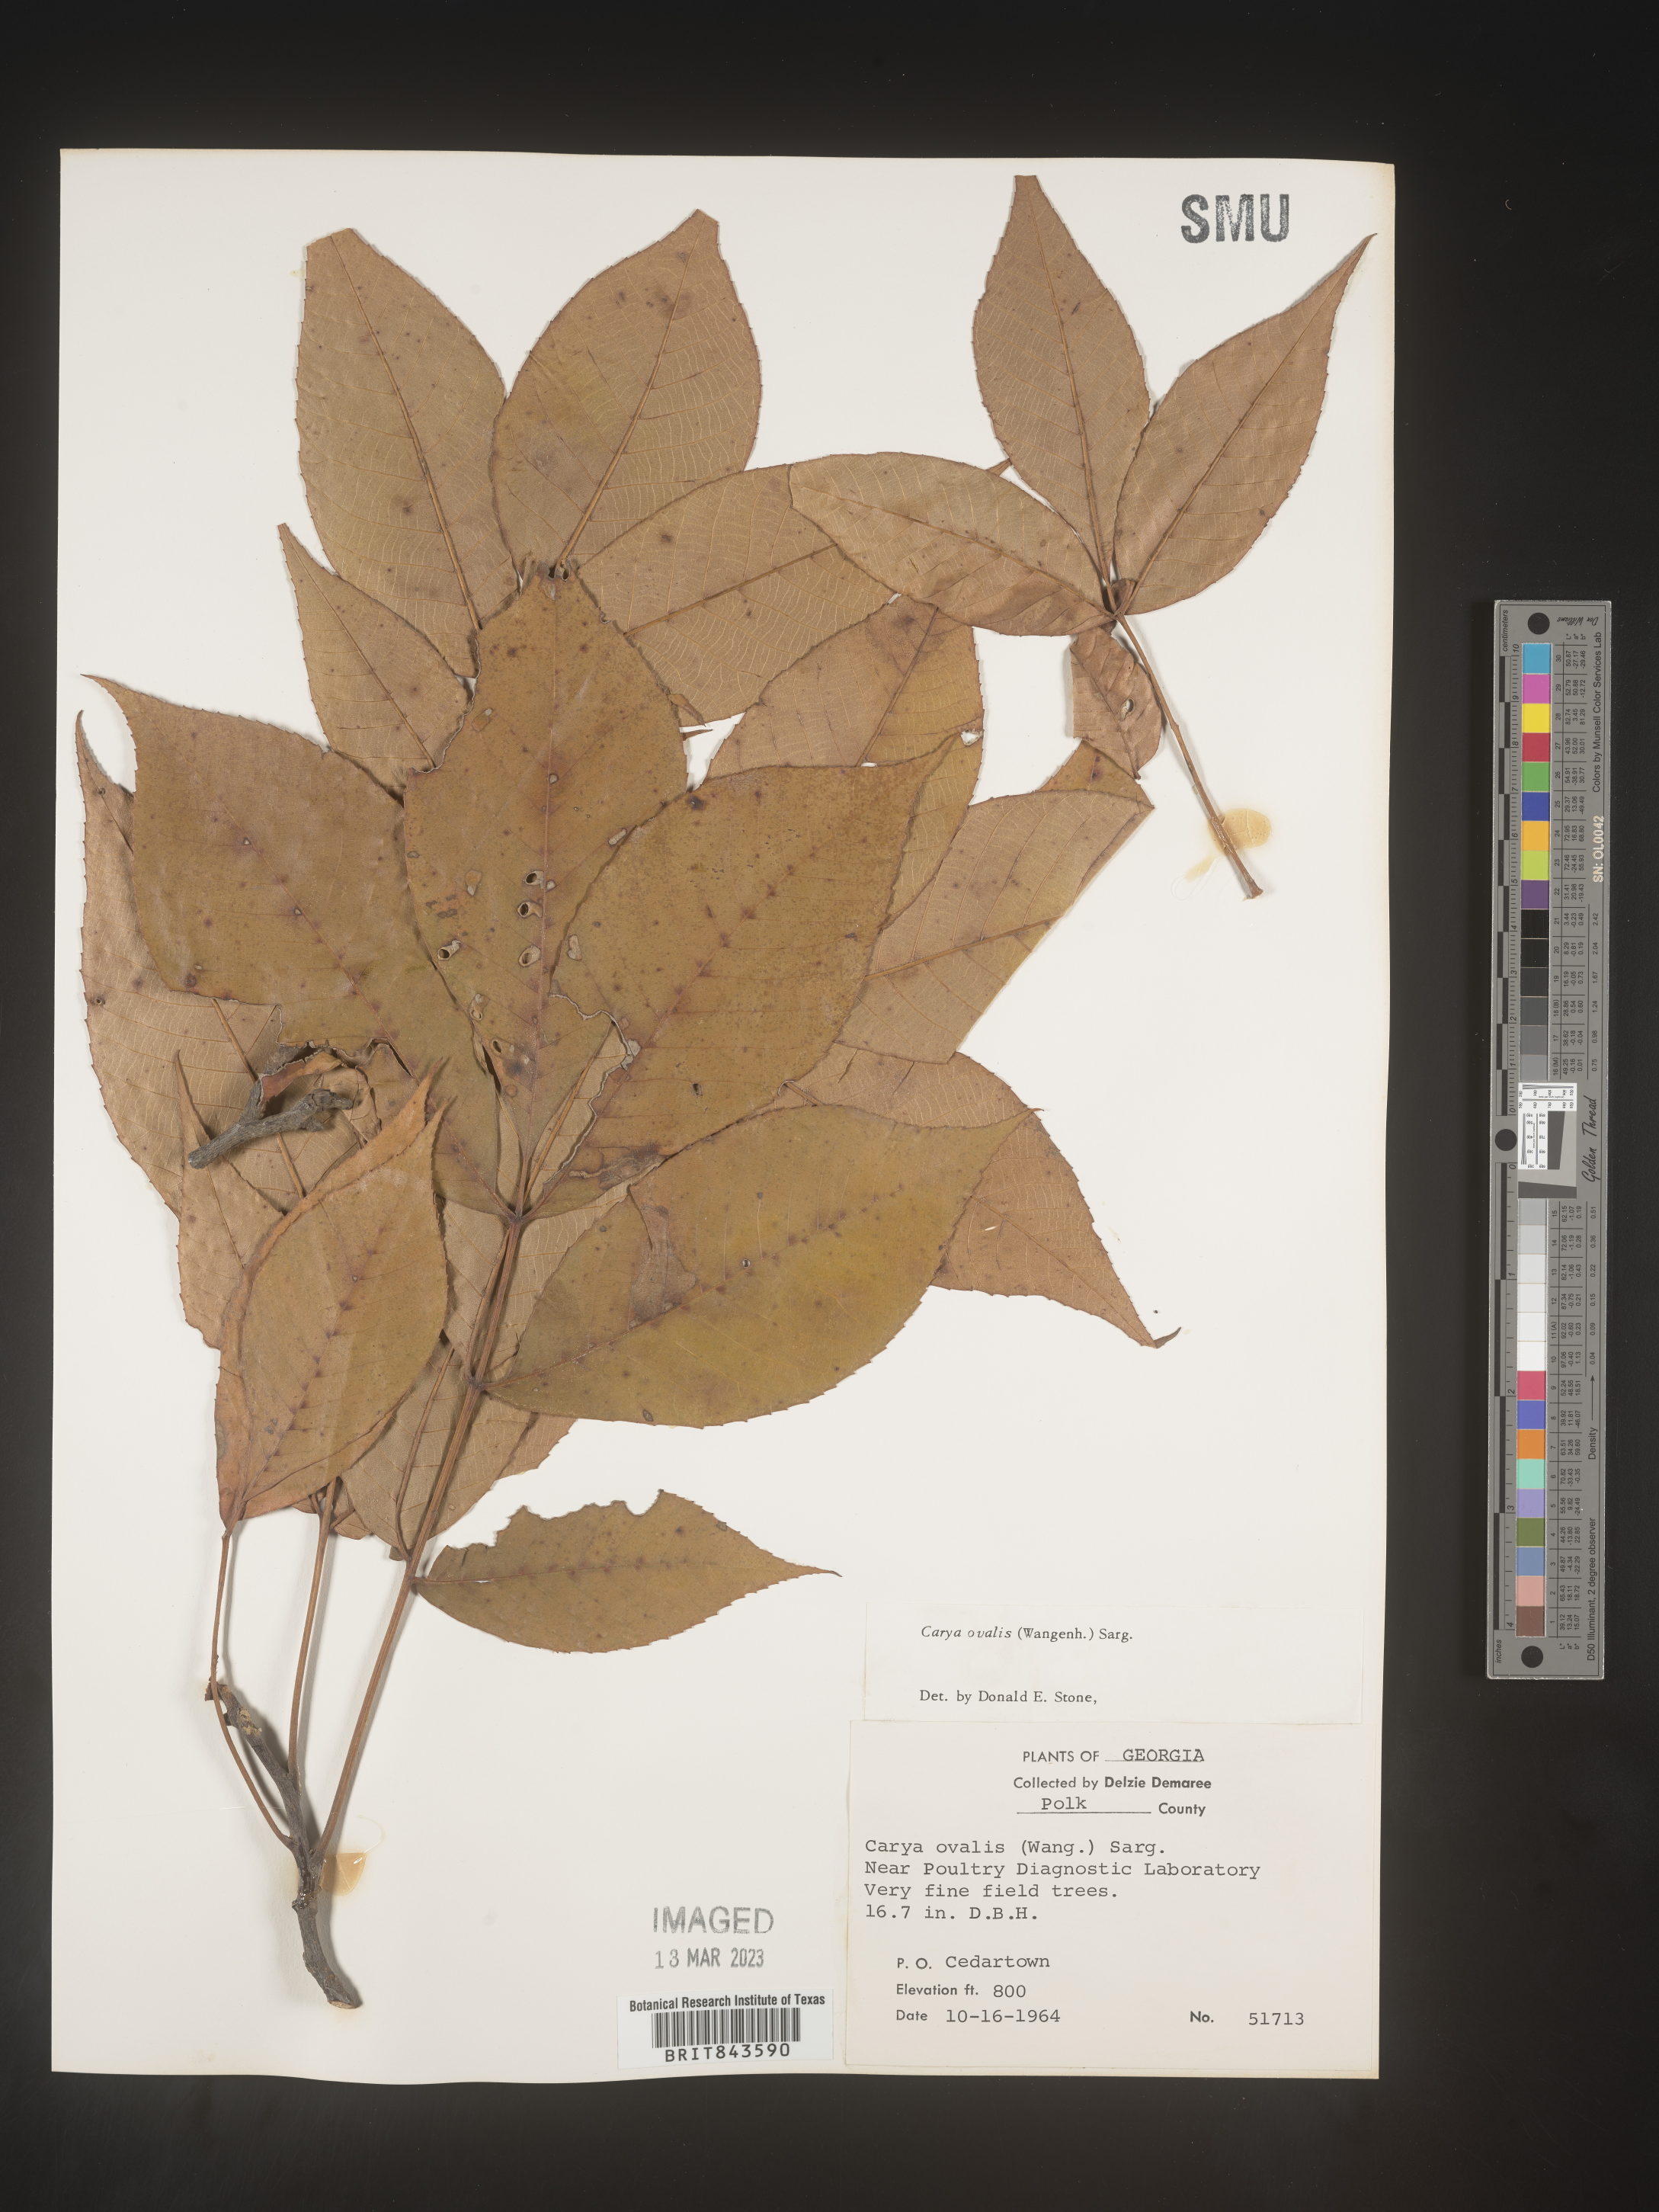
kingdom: Plantae
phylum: Tracheophyta
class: Magnoliopsida
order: Fagales
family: Juglandaceae
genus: Carya
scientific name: Carya ovalis
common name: False shagbark
